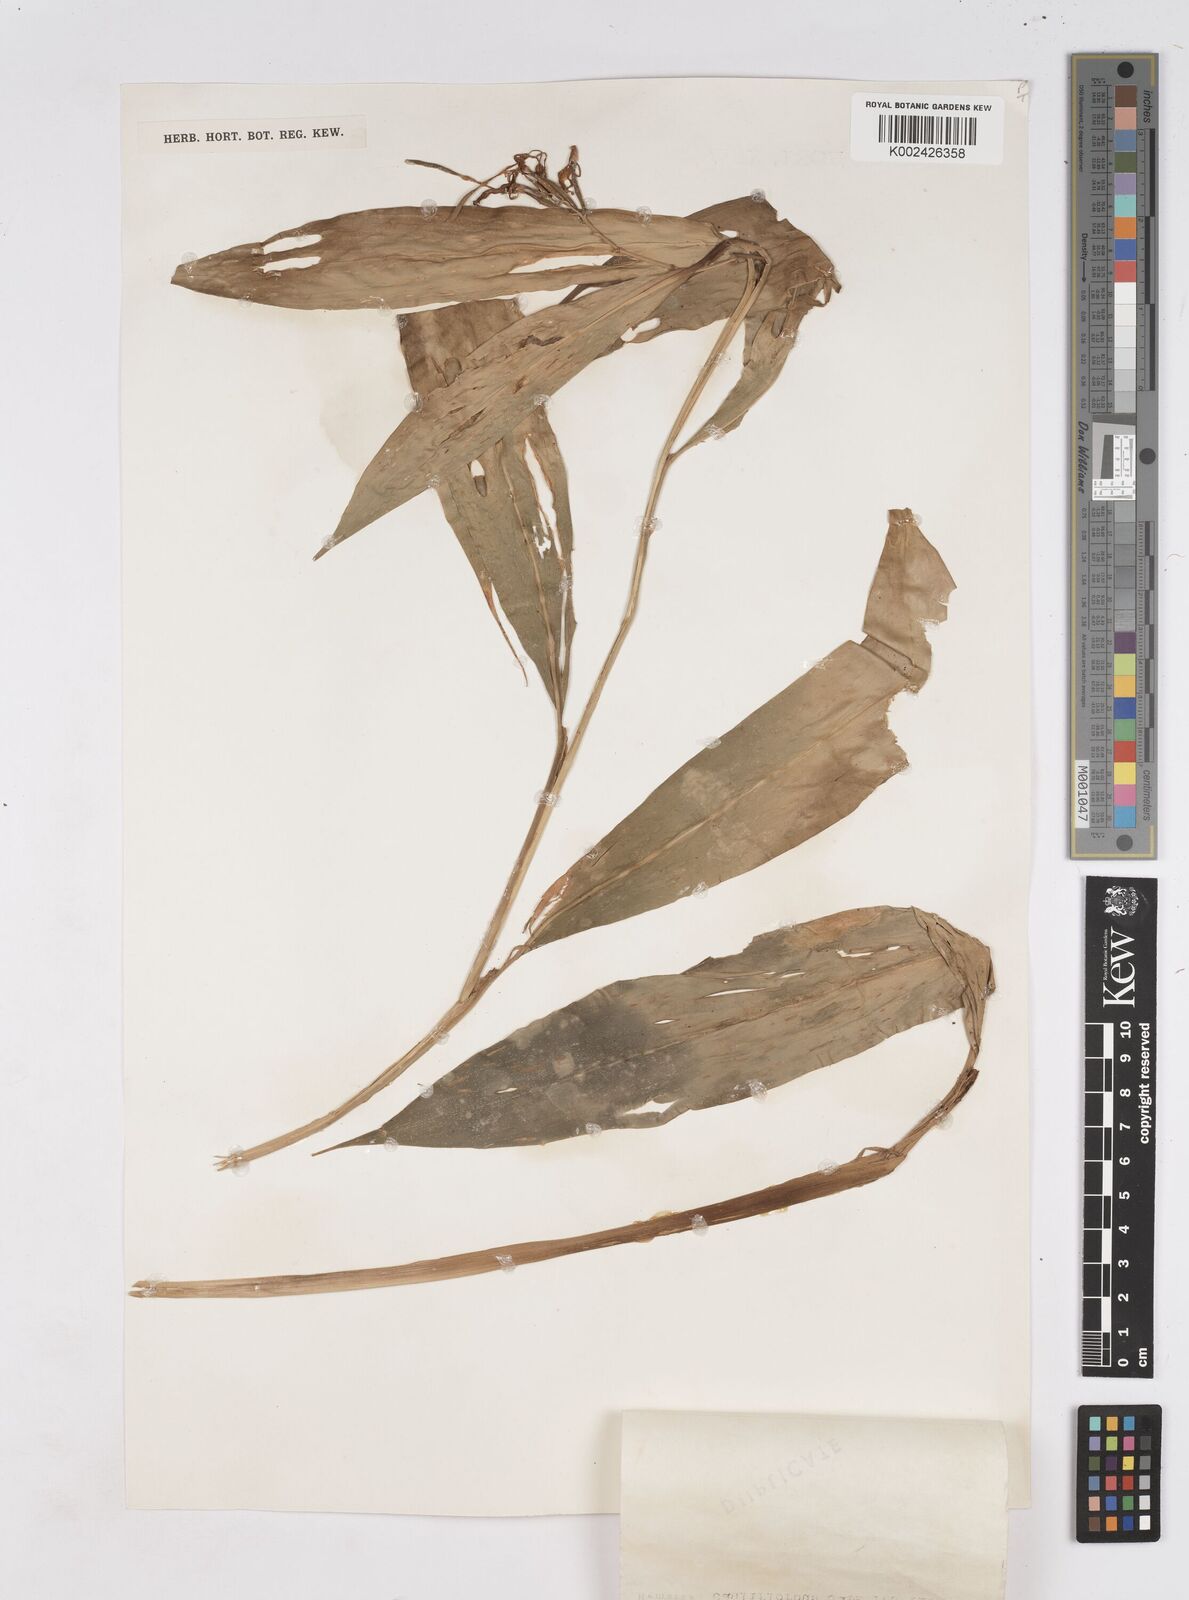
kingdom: Plantae
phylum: Tracheophyta
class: Liliopsida
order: Zingiberales
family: Zingiberaceae
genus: Burbidgea
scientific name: Burbidgea
